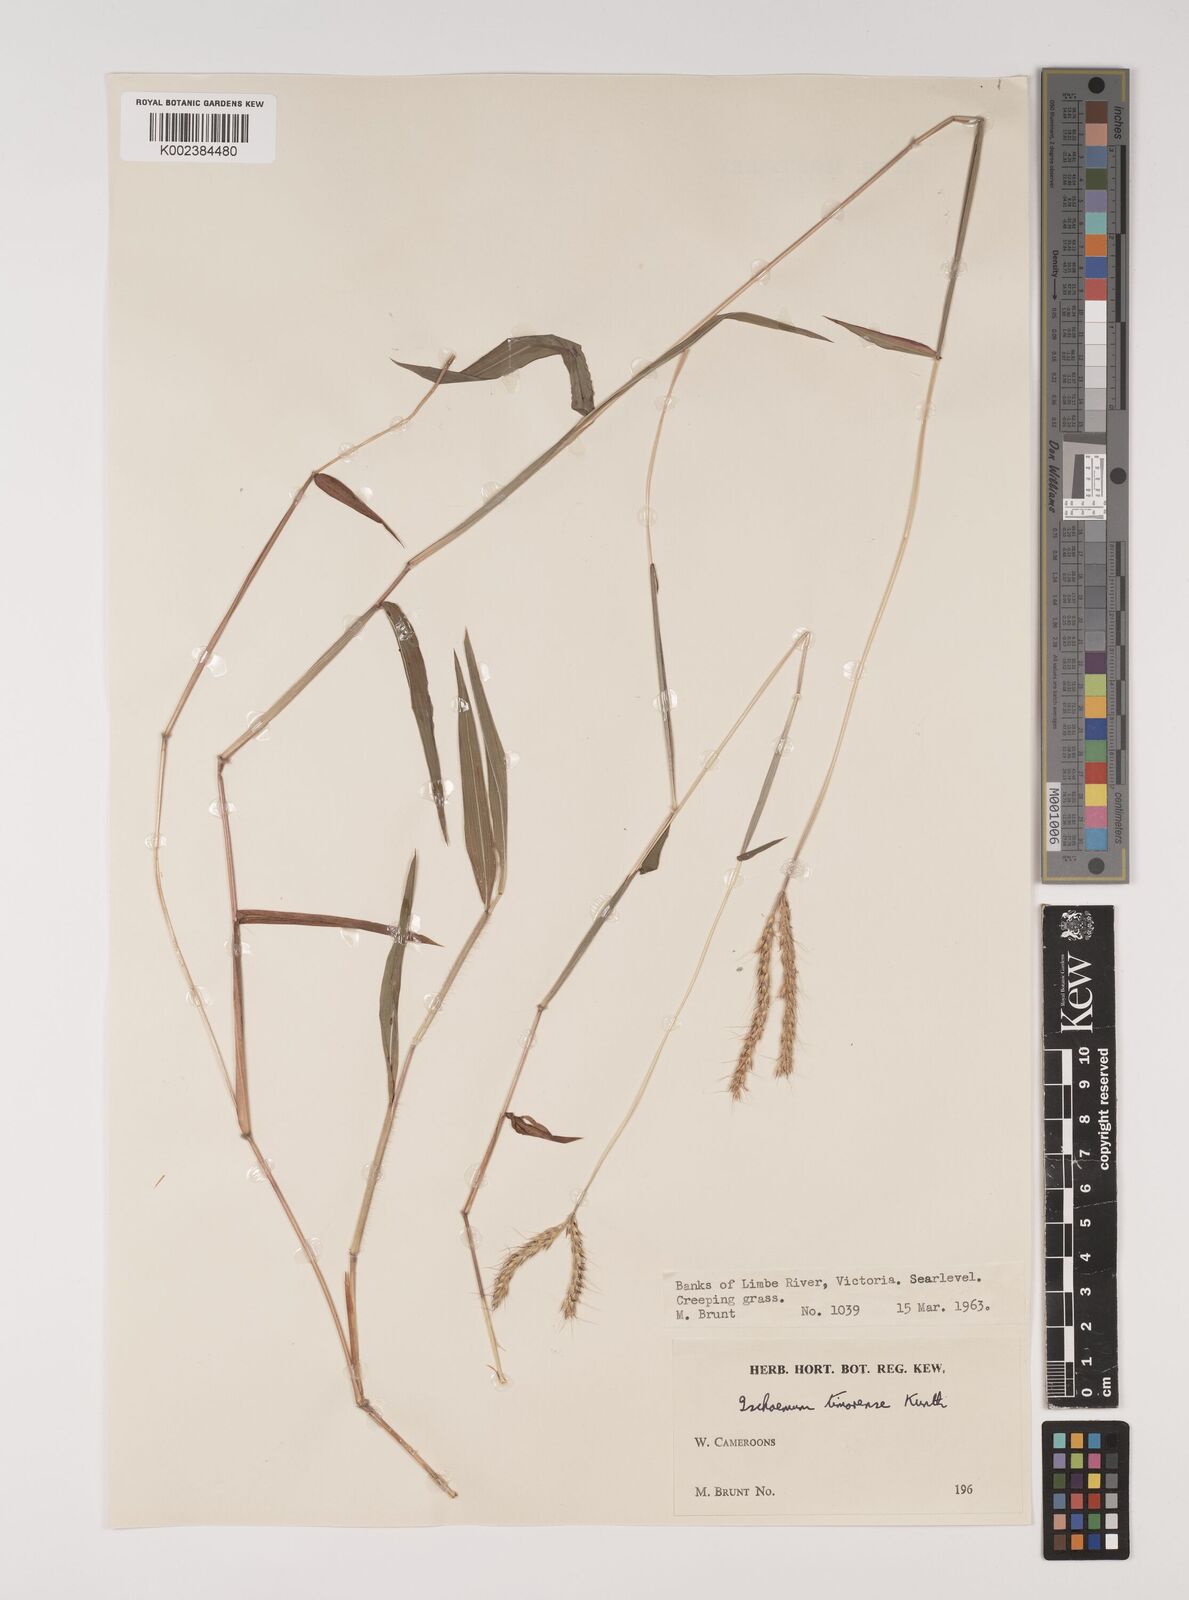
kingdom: Plantae
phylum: Tracheophyta
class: Liliopsida
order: Poales
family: Poaceae
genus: Ischaemum
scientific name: Ischaemum timorense
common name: Stalkleaf murainagrass
